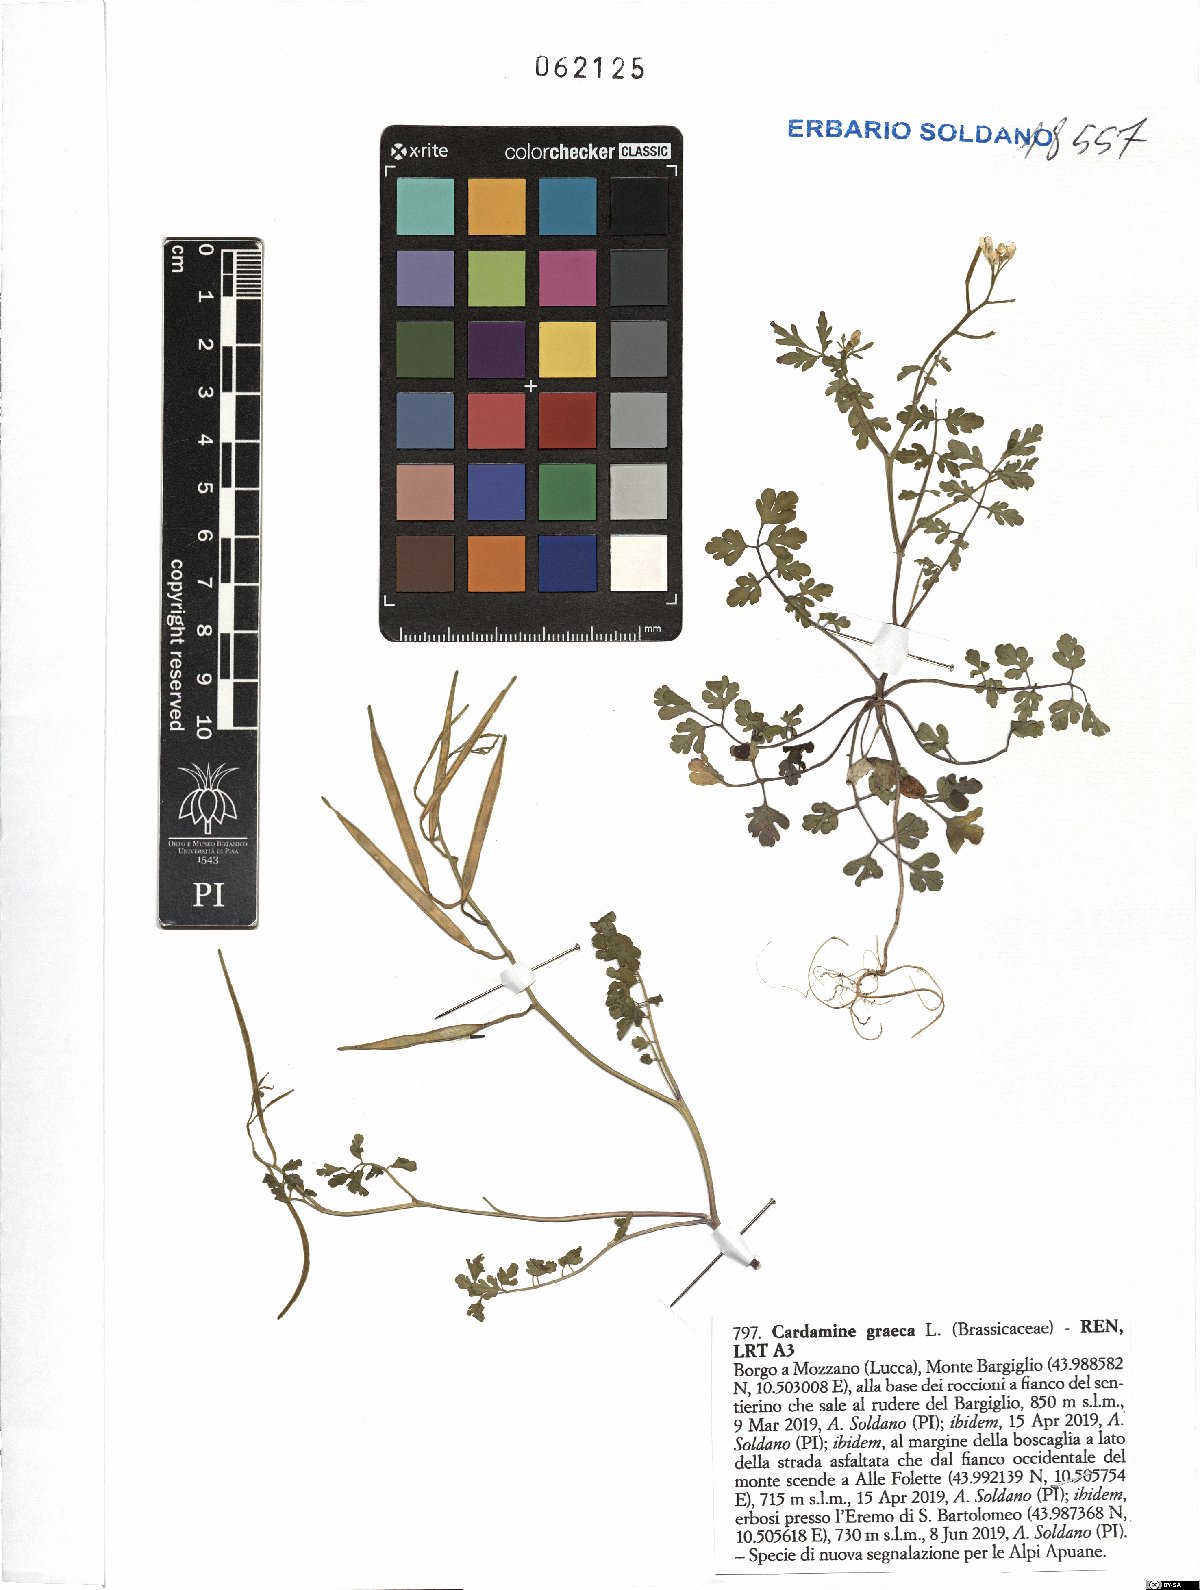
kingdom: Plantae
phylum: Tracheophyta
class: Magnoliopsida
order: Brassicales
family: Brassicaceae
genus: Cardamine
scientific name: Cardamine graeca
